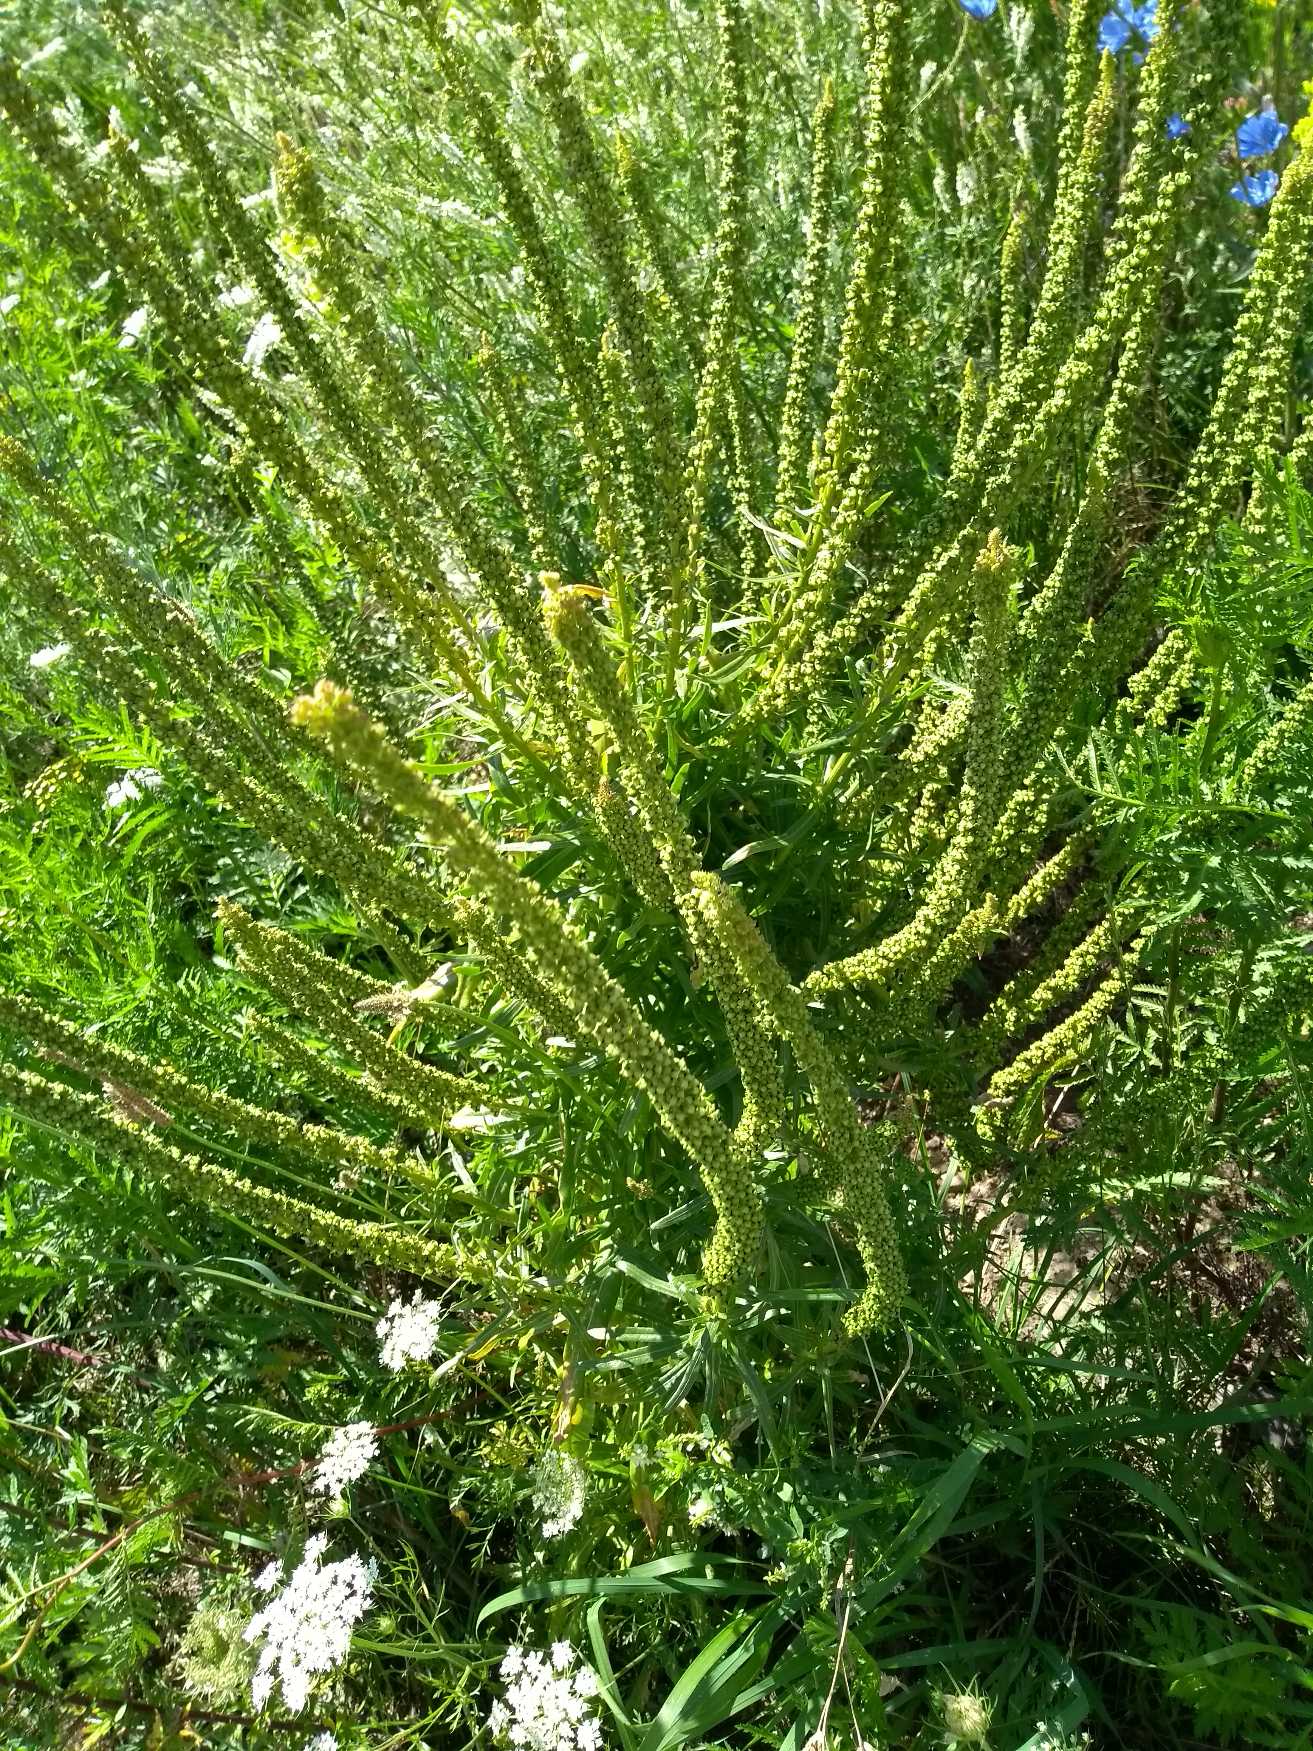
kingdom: Plantae
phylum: Tracheophyta
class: Magnoliopsida
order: Brassicales
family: Resedaceae
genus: Reseda
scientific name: Reseda luteola
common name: Farve-reseda
